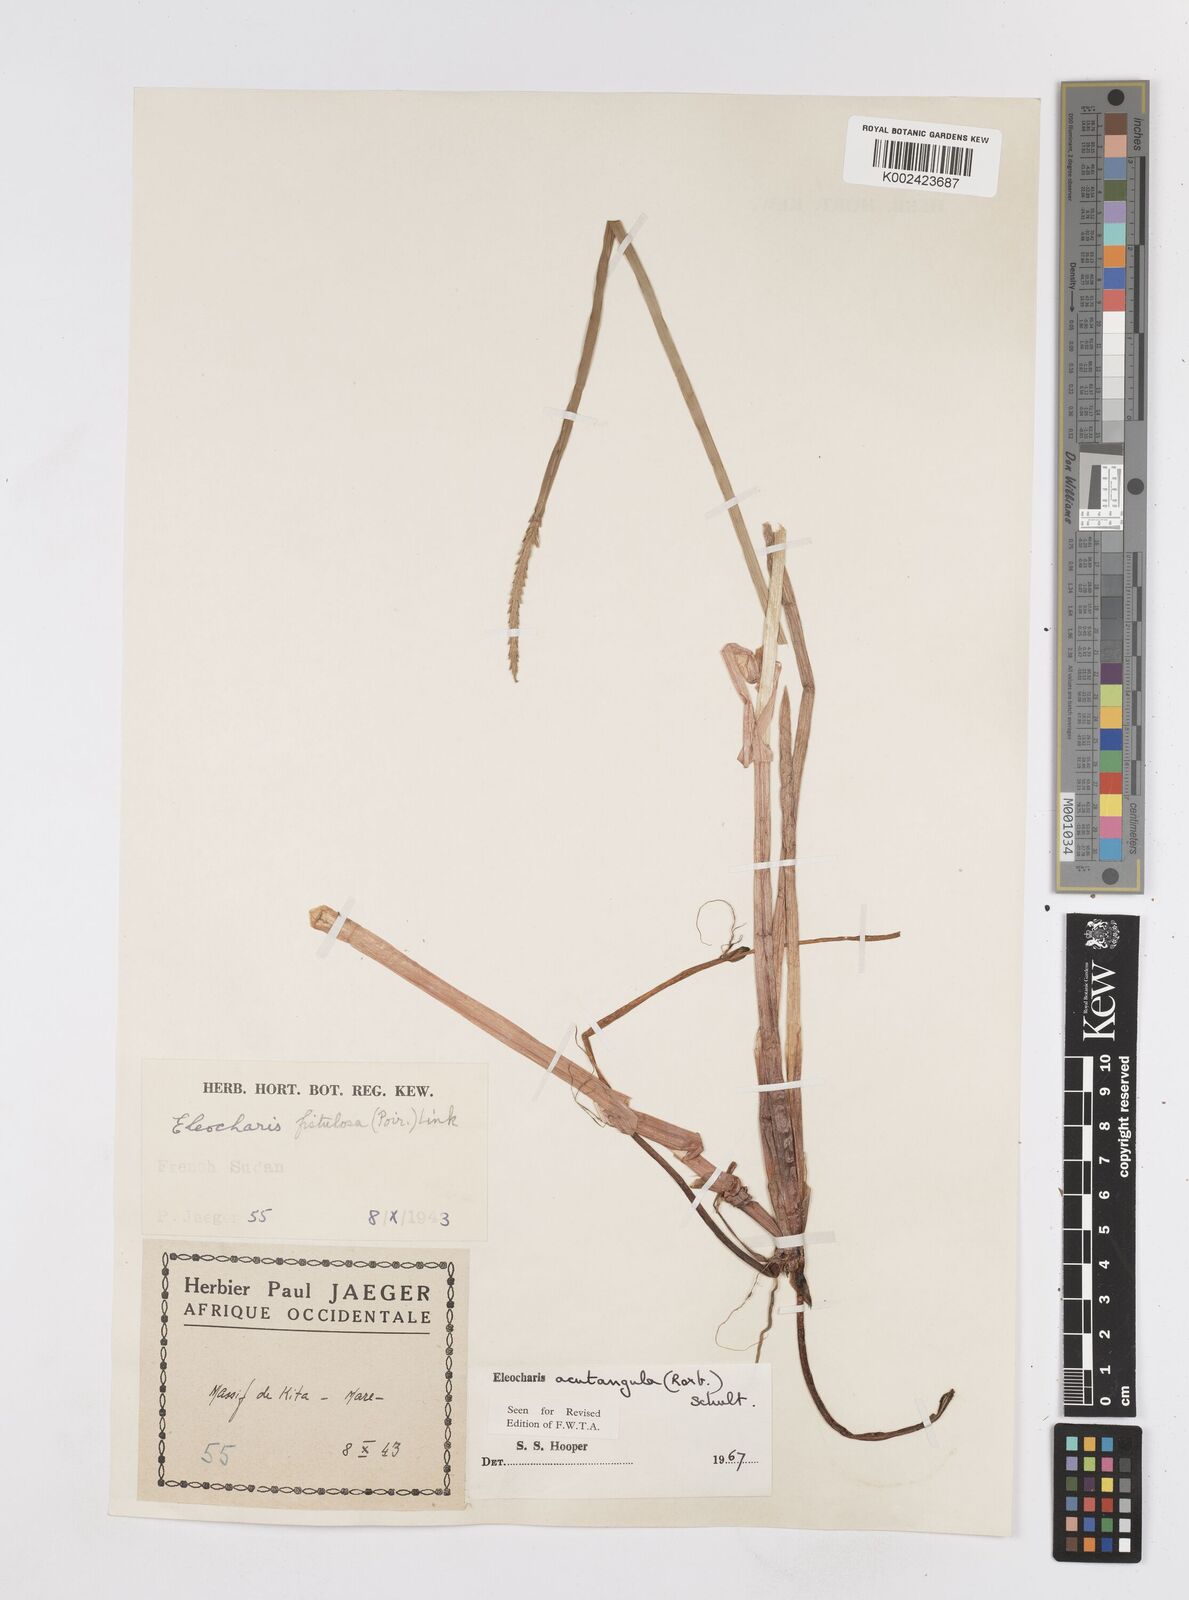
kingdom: Plantae
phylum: Tracheophyta
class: Liliopsida
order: Poales
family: Cyperaceae
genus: Eleocharis
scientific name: Eleocharis
